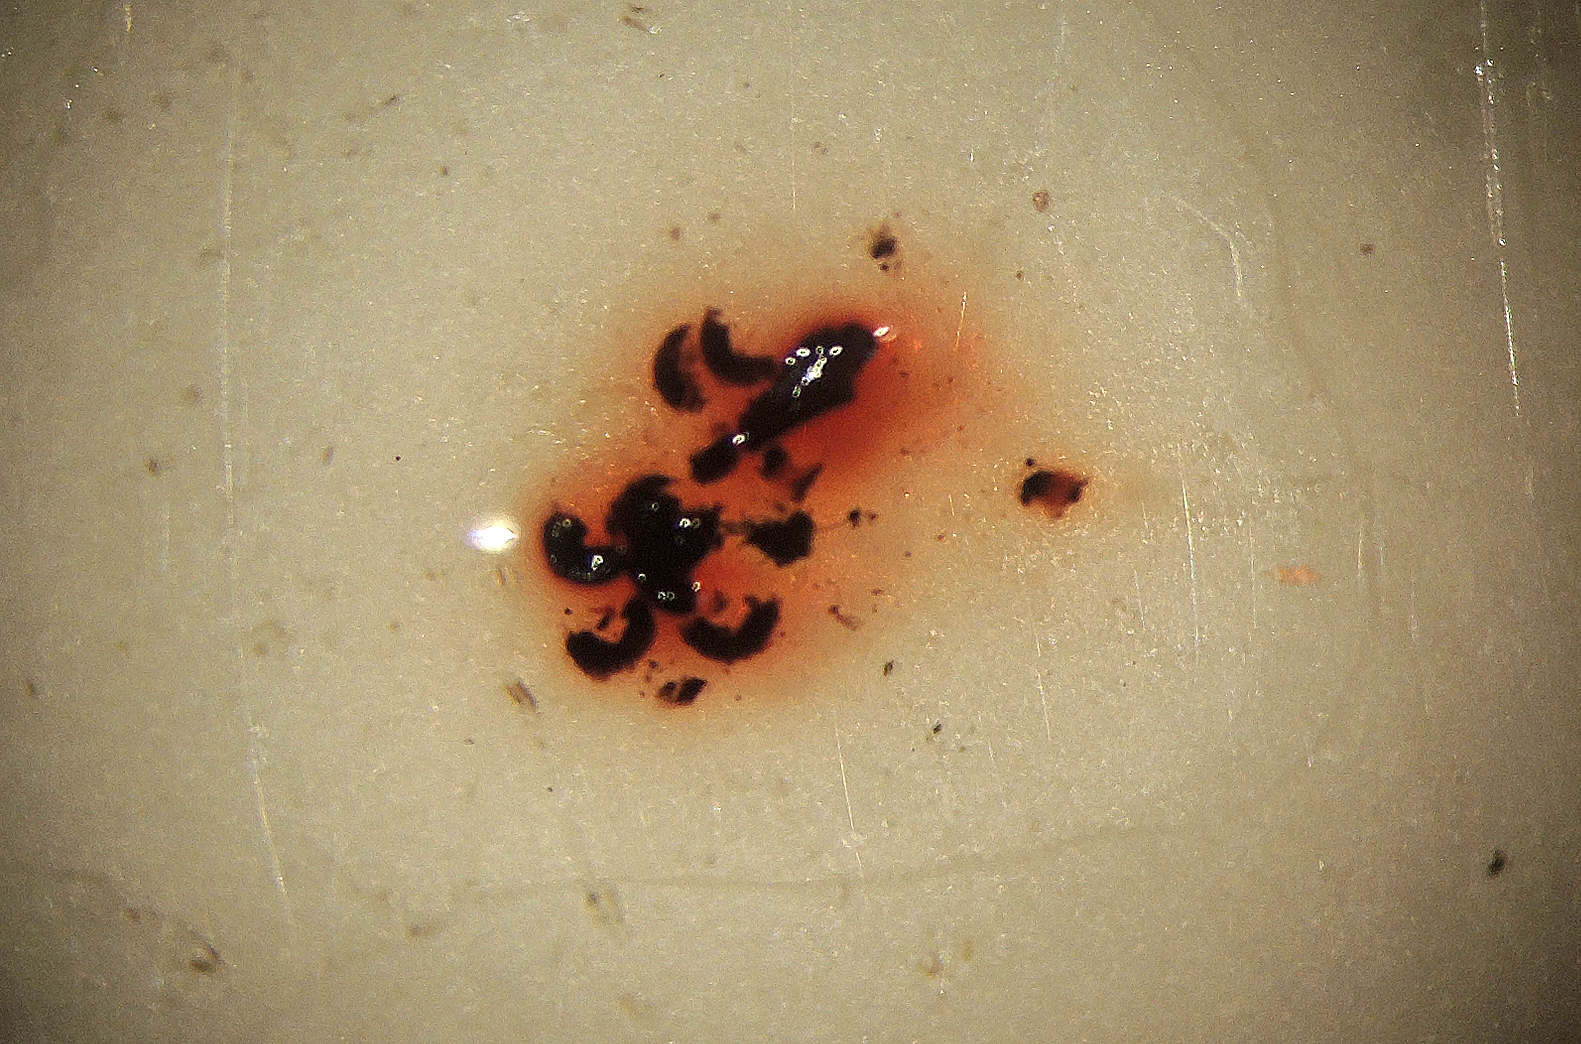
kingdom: Fungi
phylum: Ascomycota
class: Dothideomycetes
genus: Catinella
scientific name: Catinella olivacea
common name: olivenskive
